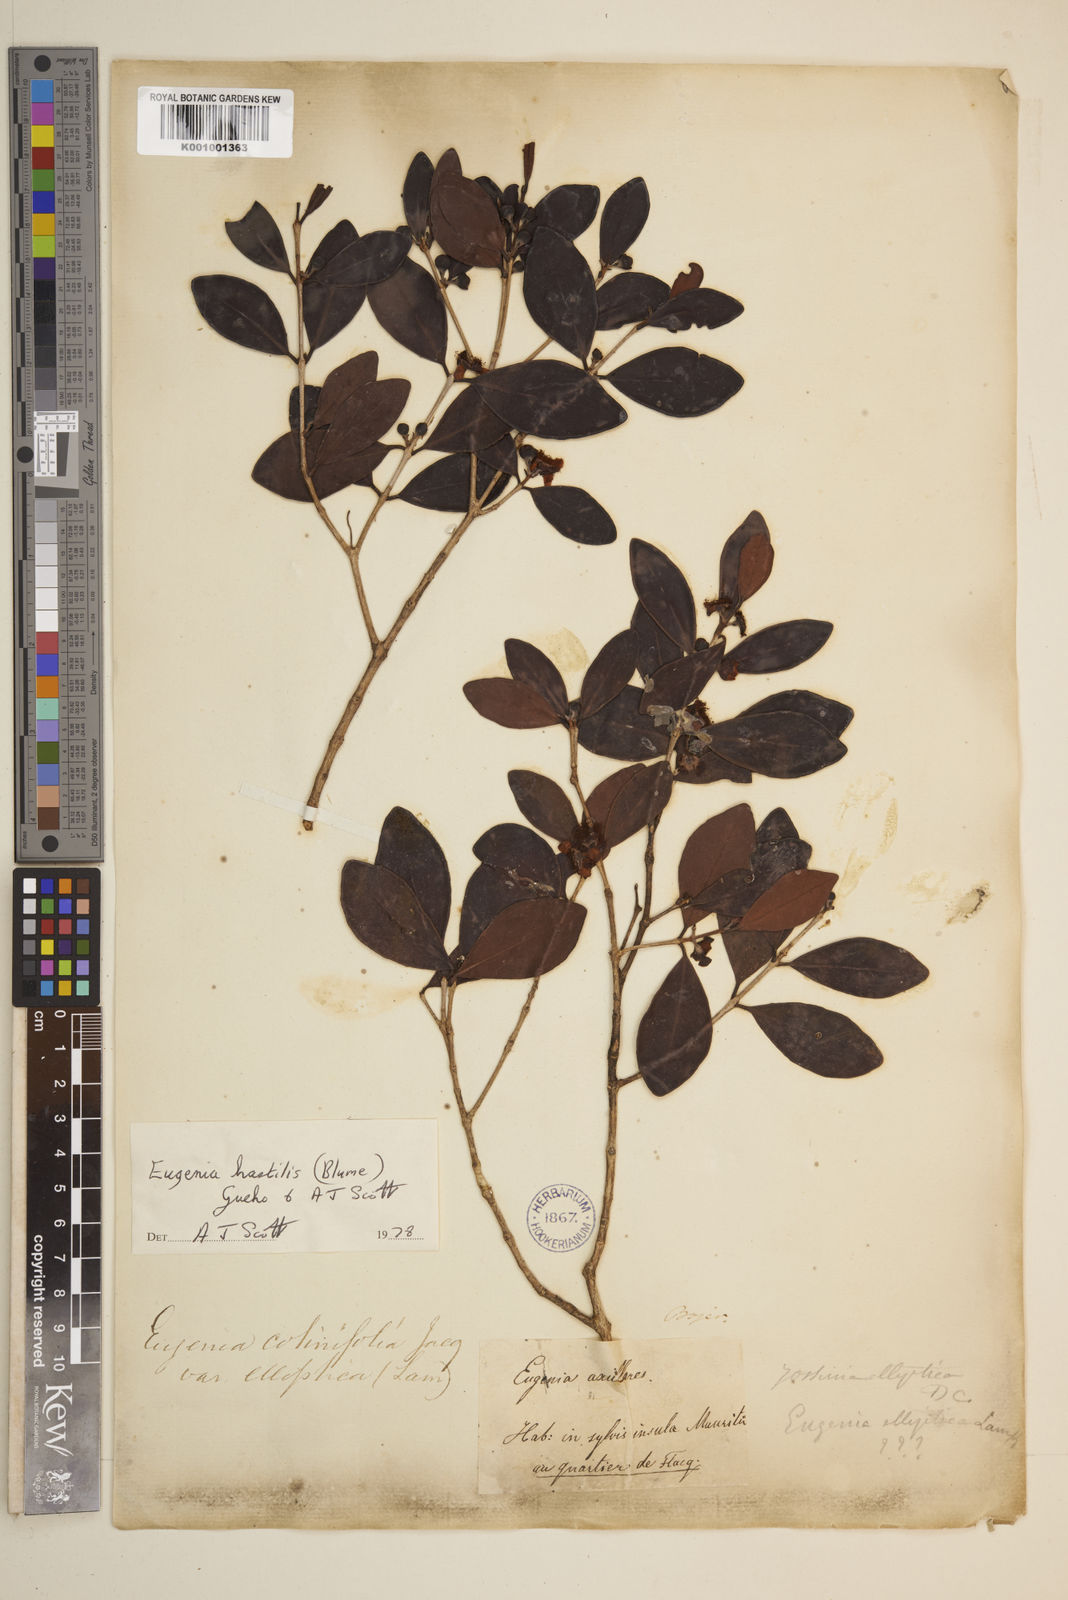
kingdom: Plantae
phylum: Tracheophyta
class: Magnoliopsida
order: Myrtales
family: Myrtaceae
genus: Eugenia
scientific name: Eugenia
